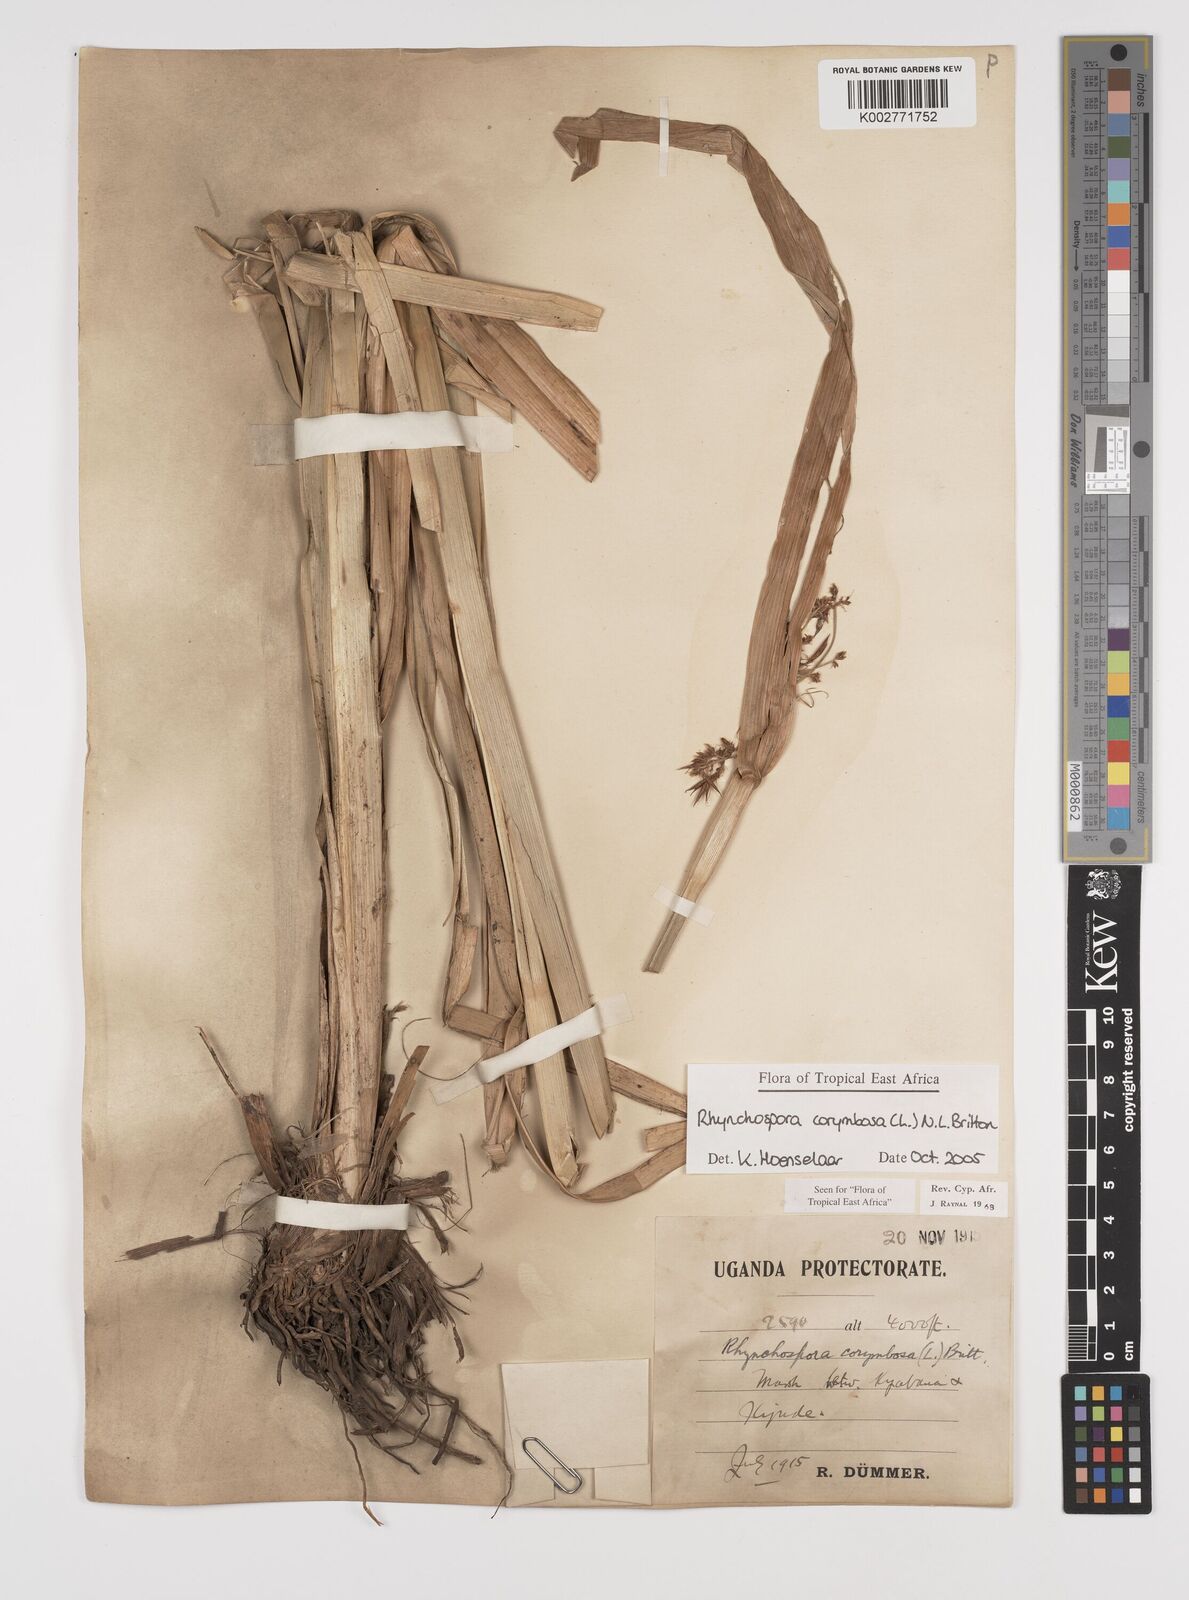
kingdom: Plantae
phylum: Tracheophyta
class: Liliopsida
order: Poales
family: Cyperaceae
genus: Rhynchospora
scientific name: Rhynchospora corymbosa
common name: Golden beak sedge
